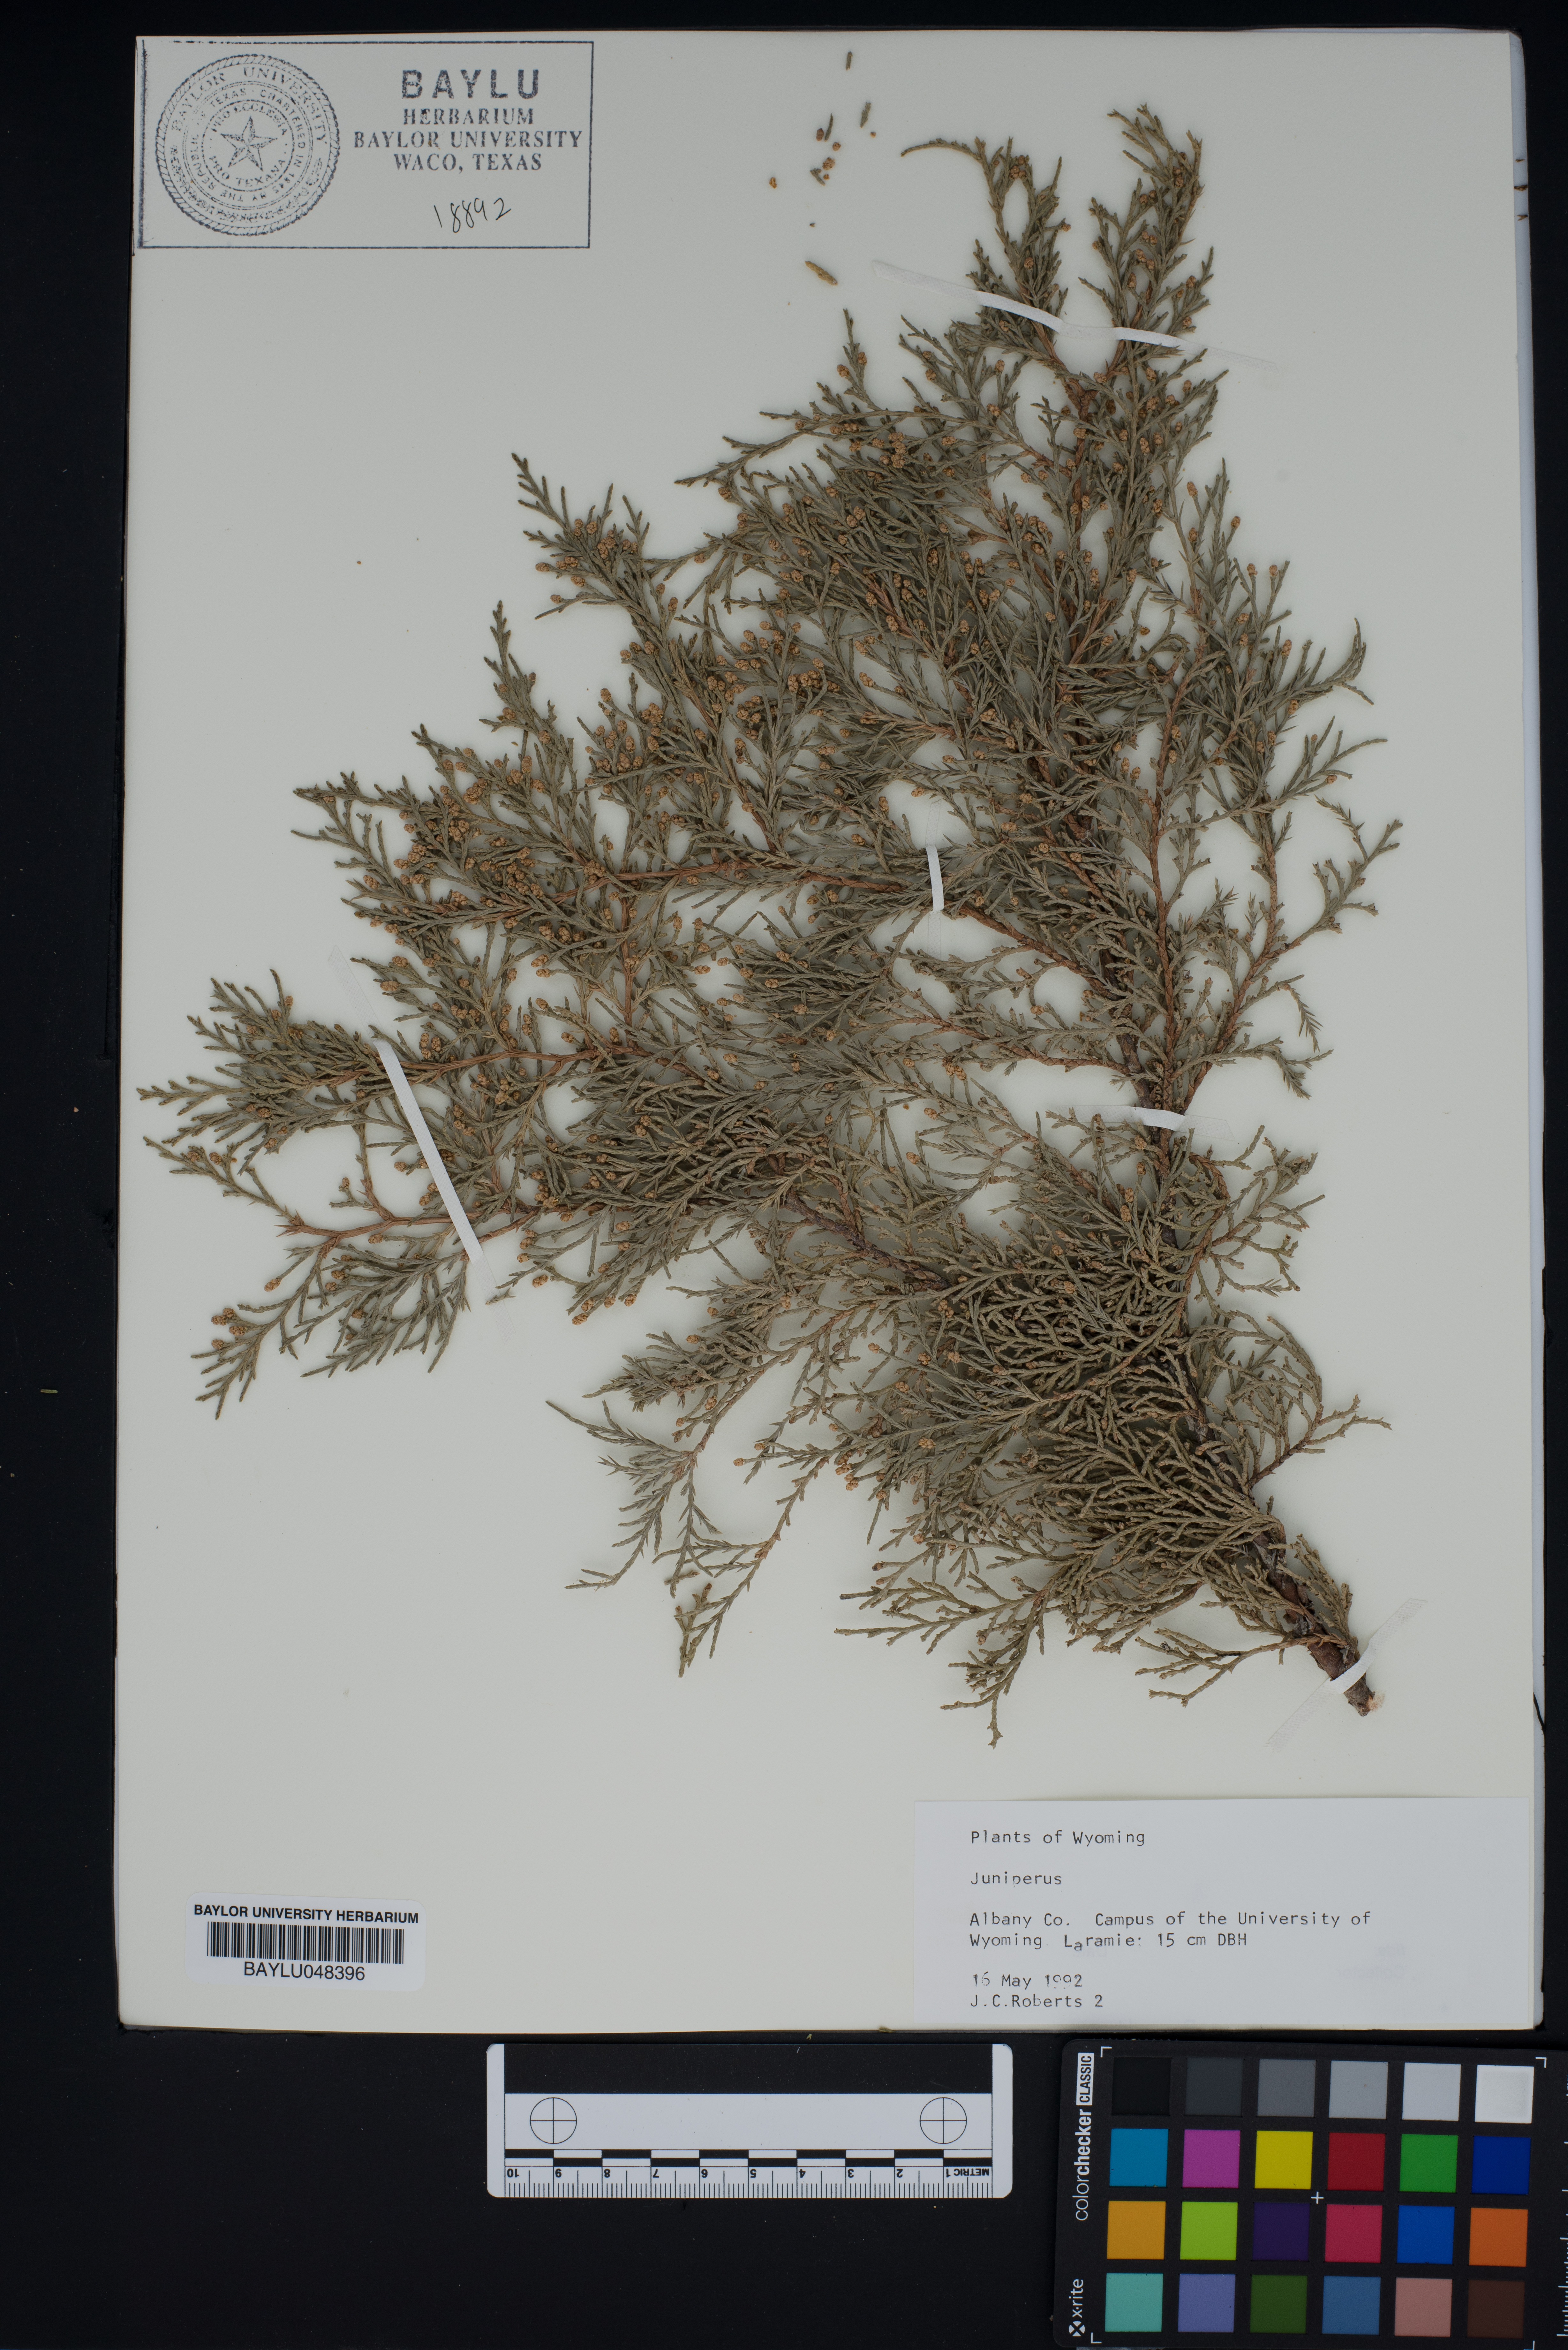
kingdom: Plantae
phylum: Tracheophyta
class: Pinopsida
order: Pinales
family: Cupressaceae
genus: Juniperus
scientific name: Juniperus
